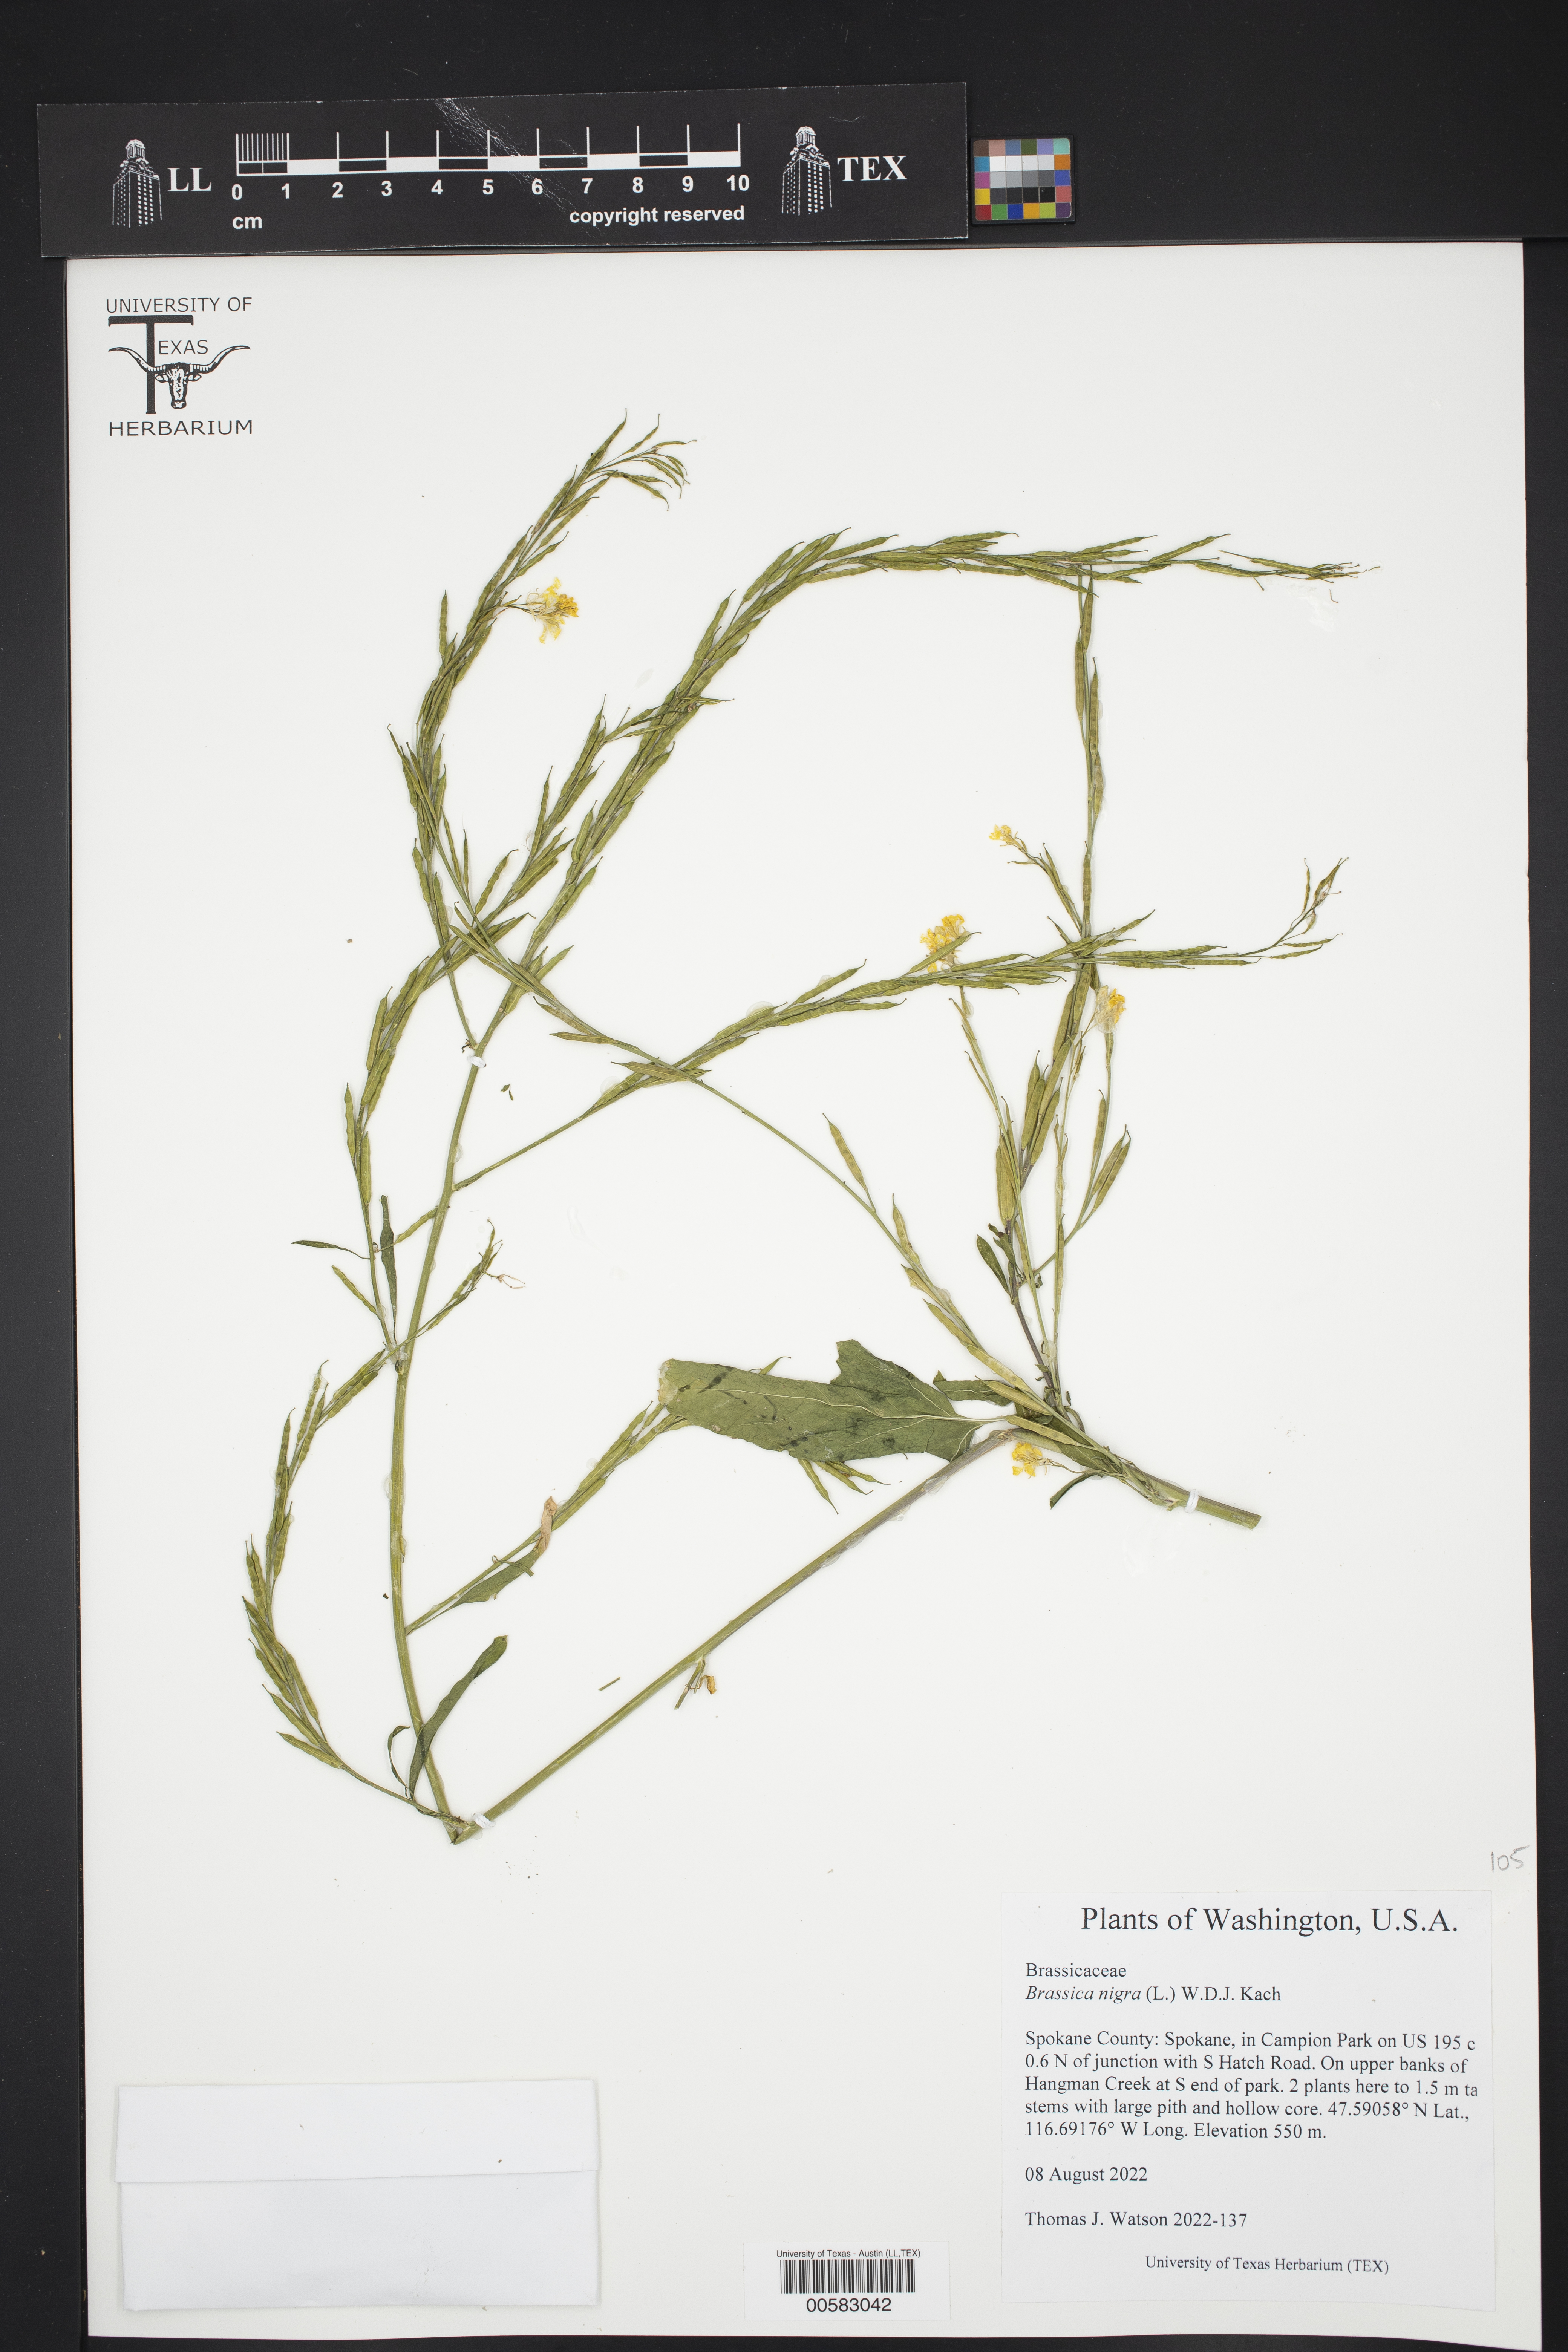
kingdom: Plantae
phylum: Tracheophyta
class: Magnoliopsida
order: Brassicales
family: Brassicaceae
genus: Brassica
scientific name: Brassica nigra
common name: Black mustard
